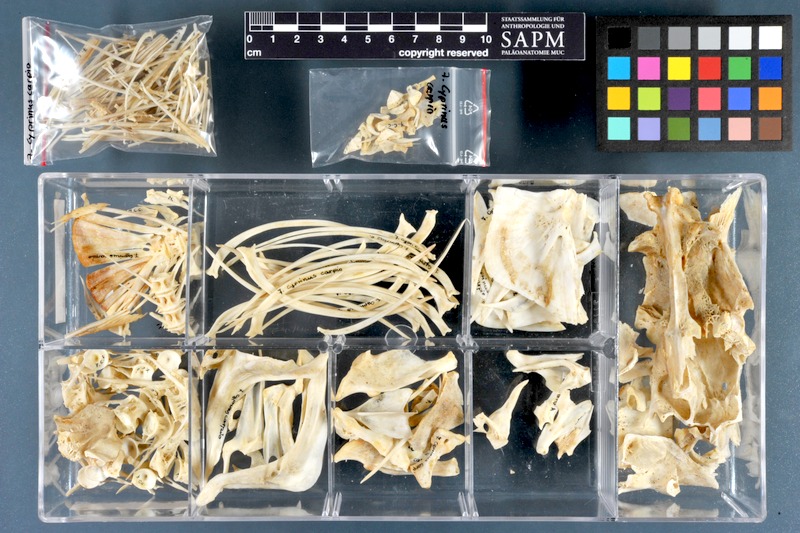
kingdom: Animalia
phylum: Chordata
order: Cypriniformes
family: Cyprinidae
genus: Cyprinus
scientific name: Cyprinus carpio
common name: Common carp
